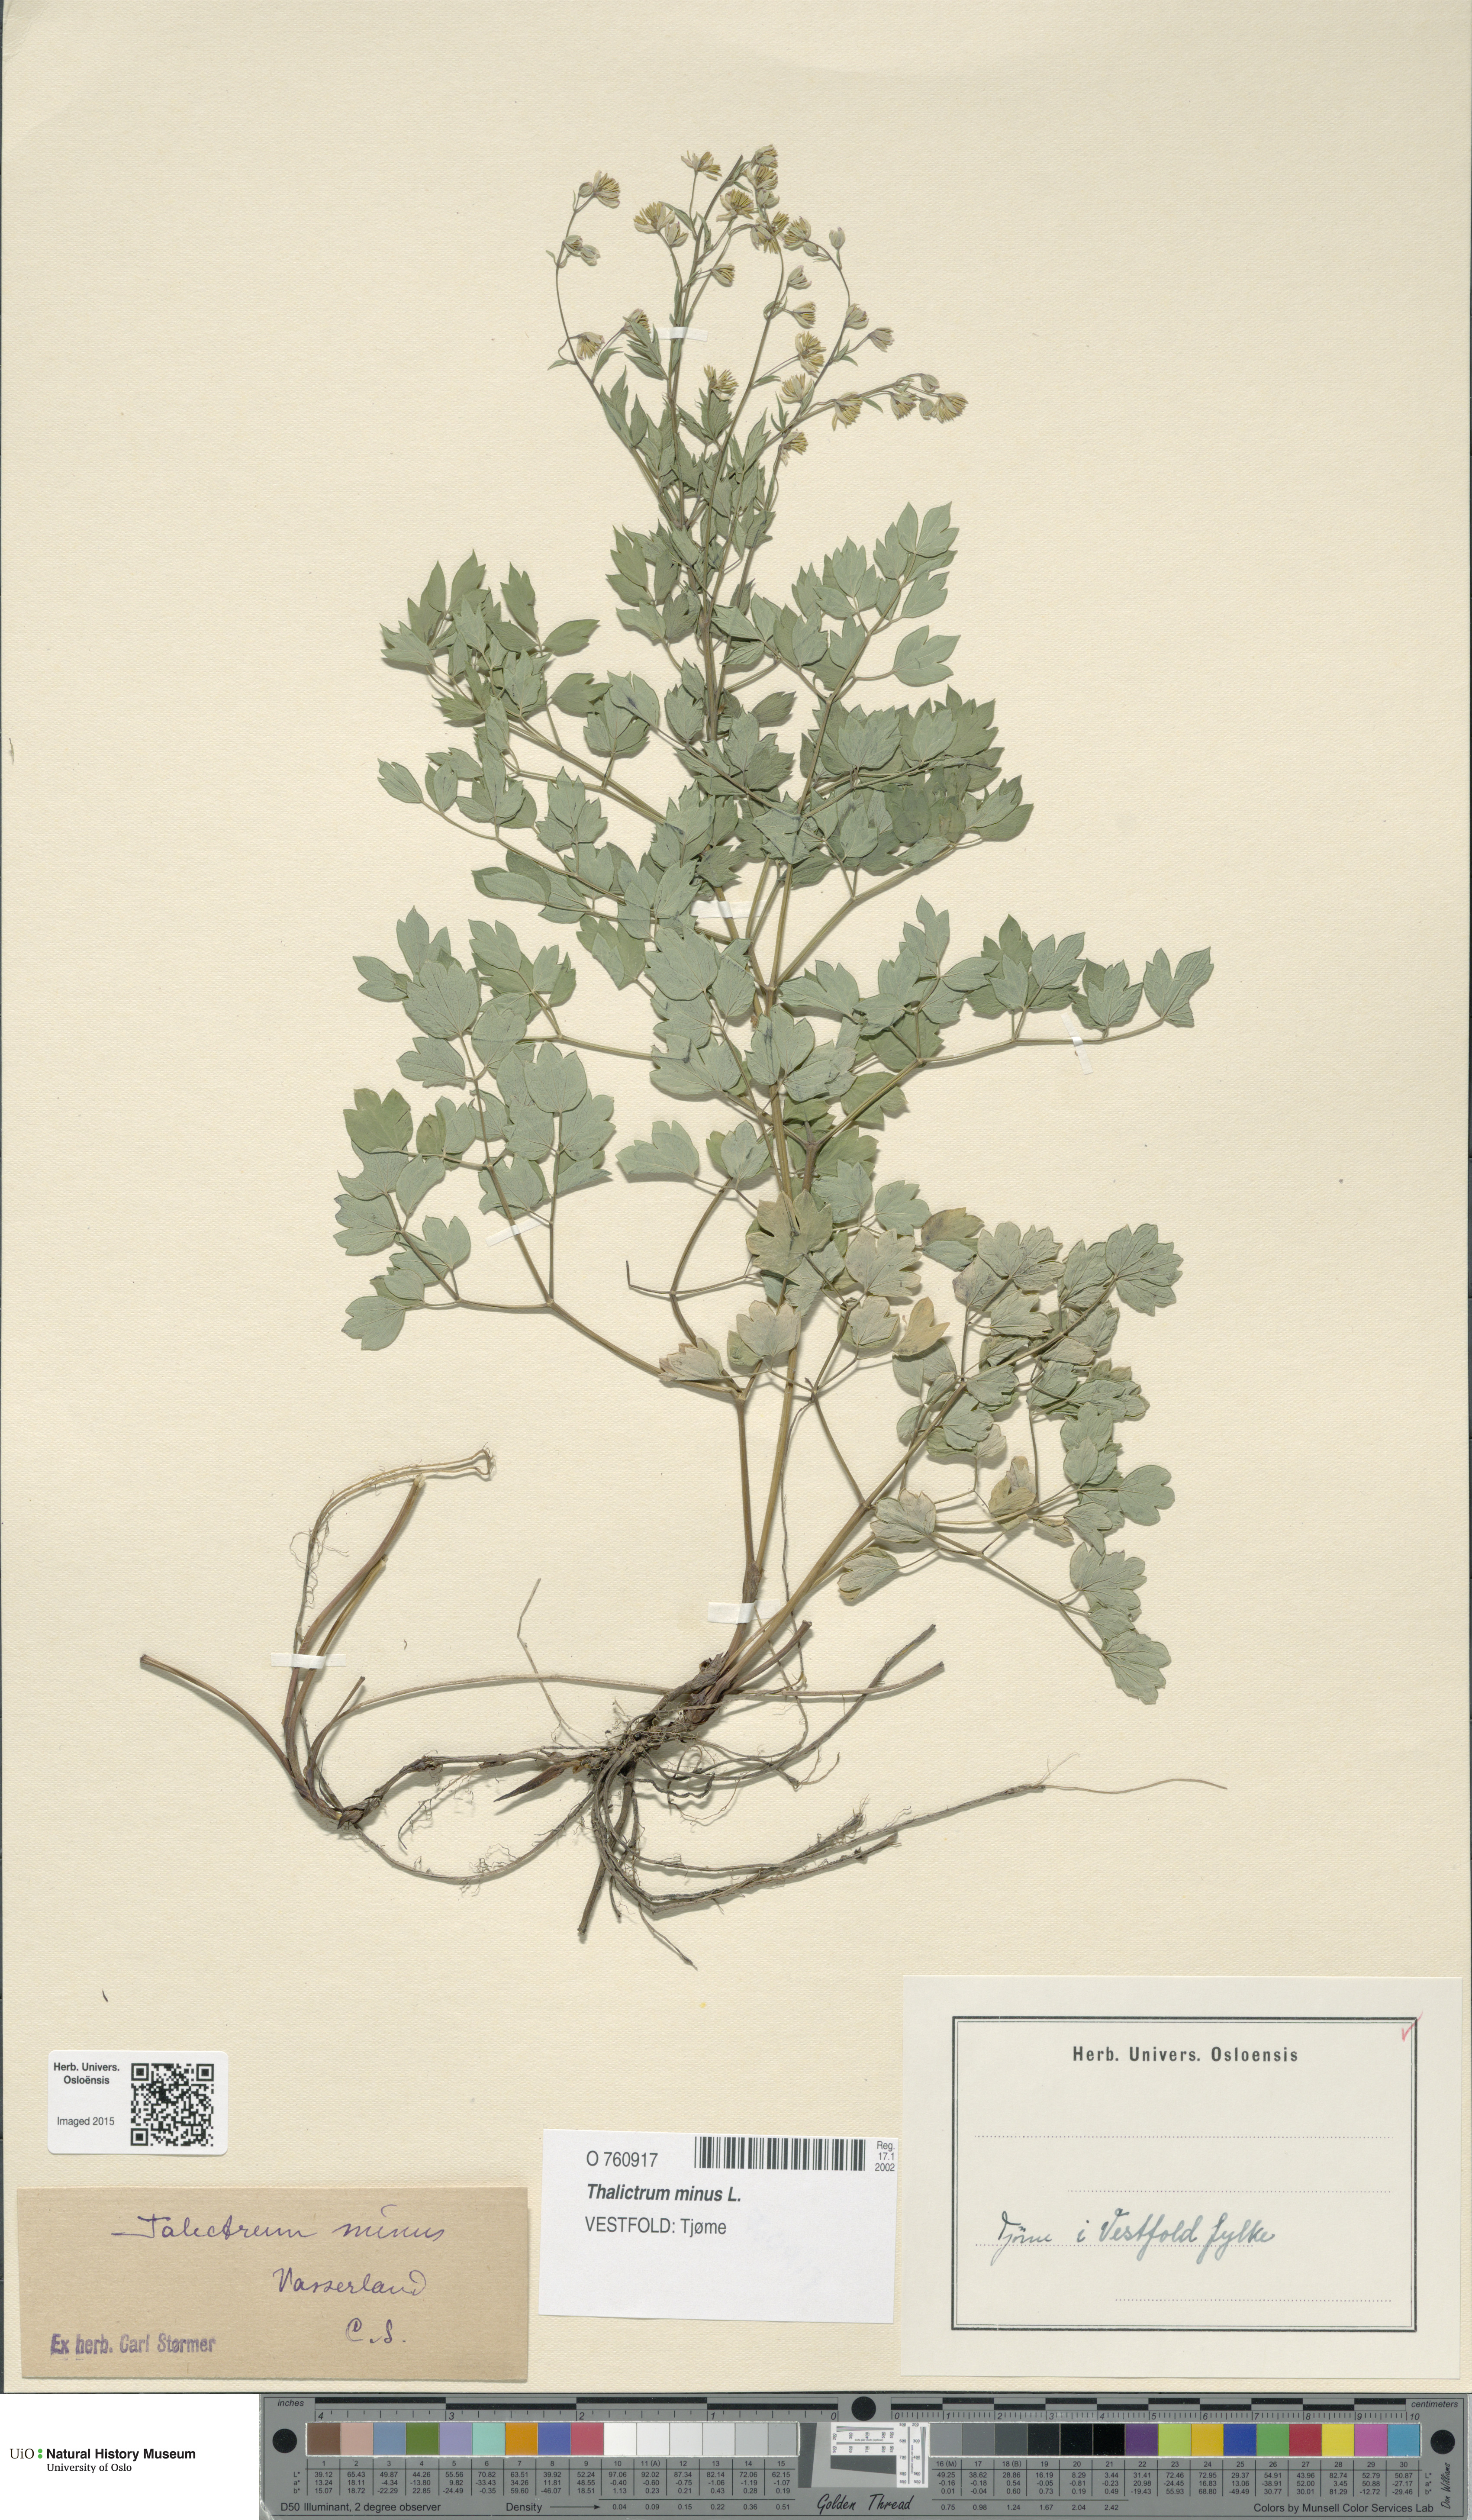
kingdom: Plantae
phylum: Tracheophyta
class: Magnoliopsida
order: Ranunculales
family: Ranunculaceae
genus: Thalictrum
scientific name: Thalictrum minus
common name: Lesser meadow-rue
